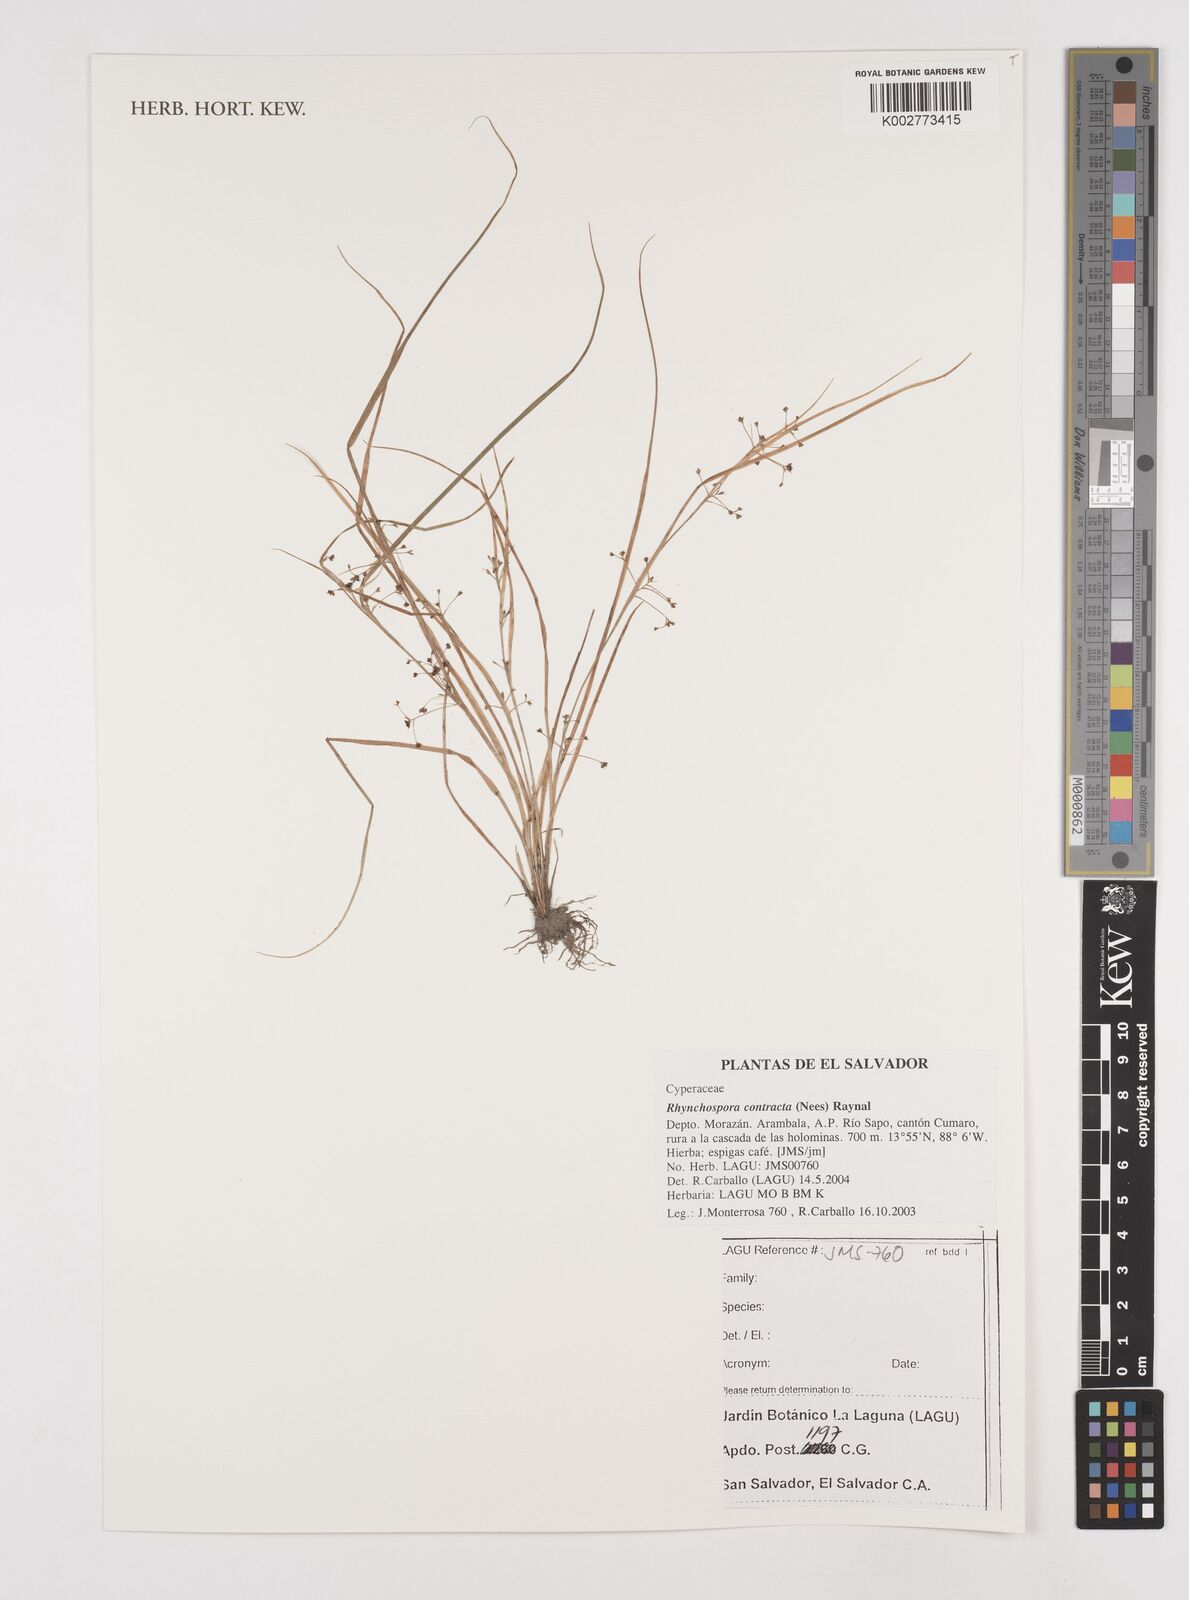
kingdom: Plantae
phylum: Tracheophyta
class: Liliopsida
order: Poales
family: Cyperaceae
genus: Rhynchospora
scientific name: Rhynchospora contracta
